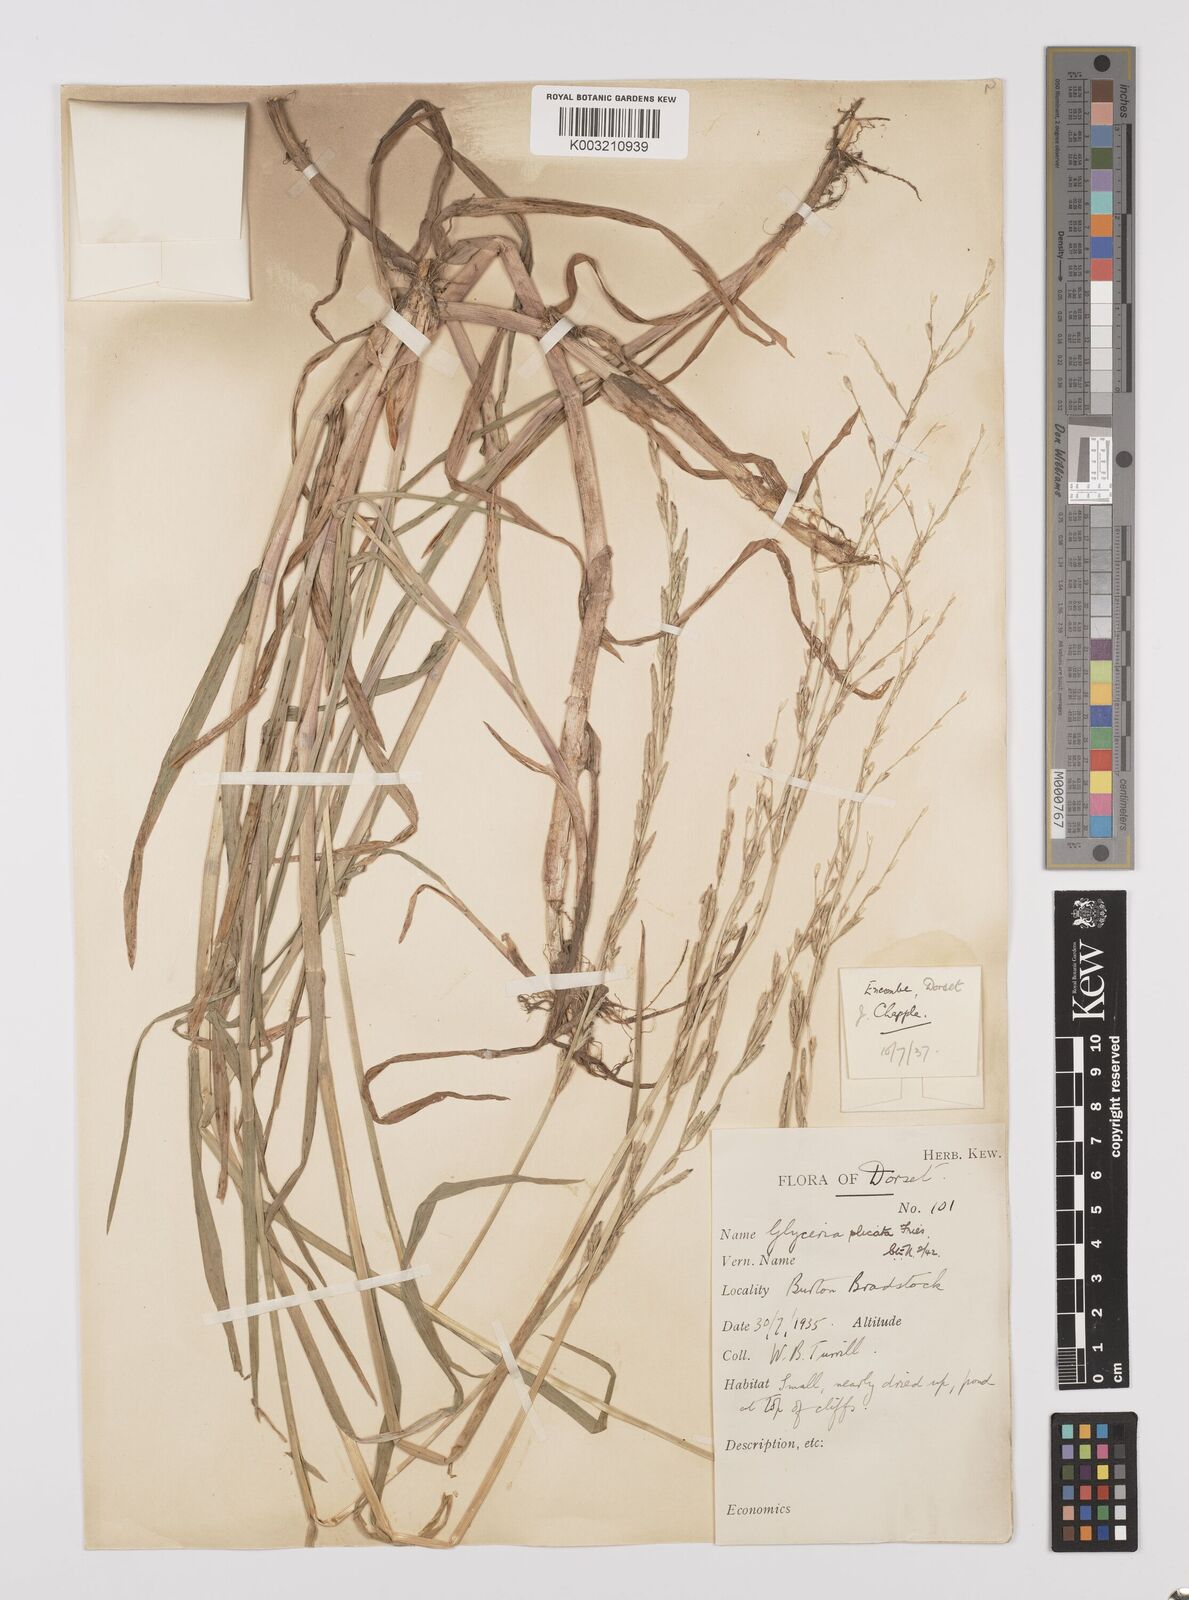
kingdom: Plantae
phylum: Tracheophyta
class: Liliopsida
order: Poales
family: Poaceae
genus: Glyceria
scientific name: Glyceria notata
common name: Plicate sweet-grass
